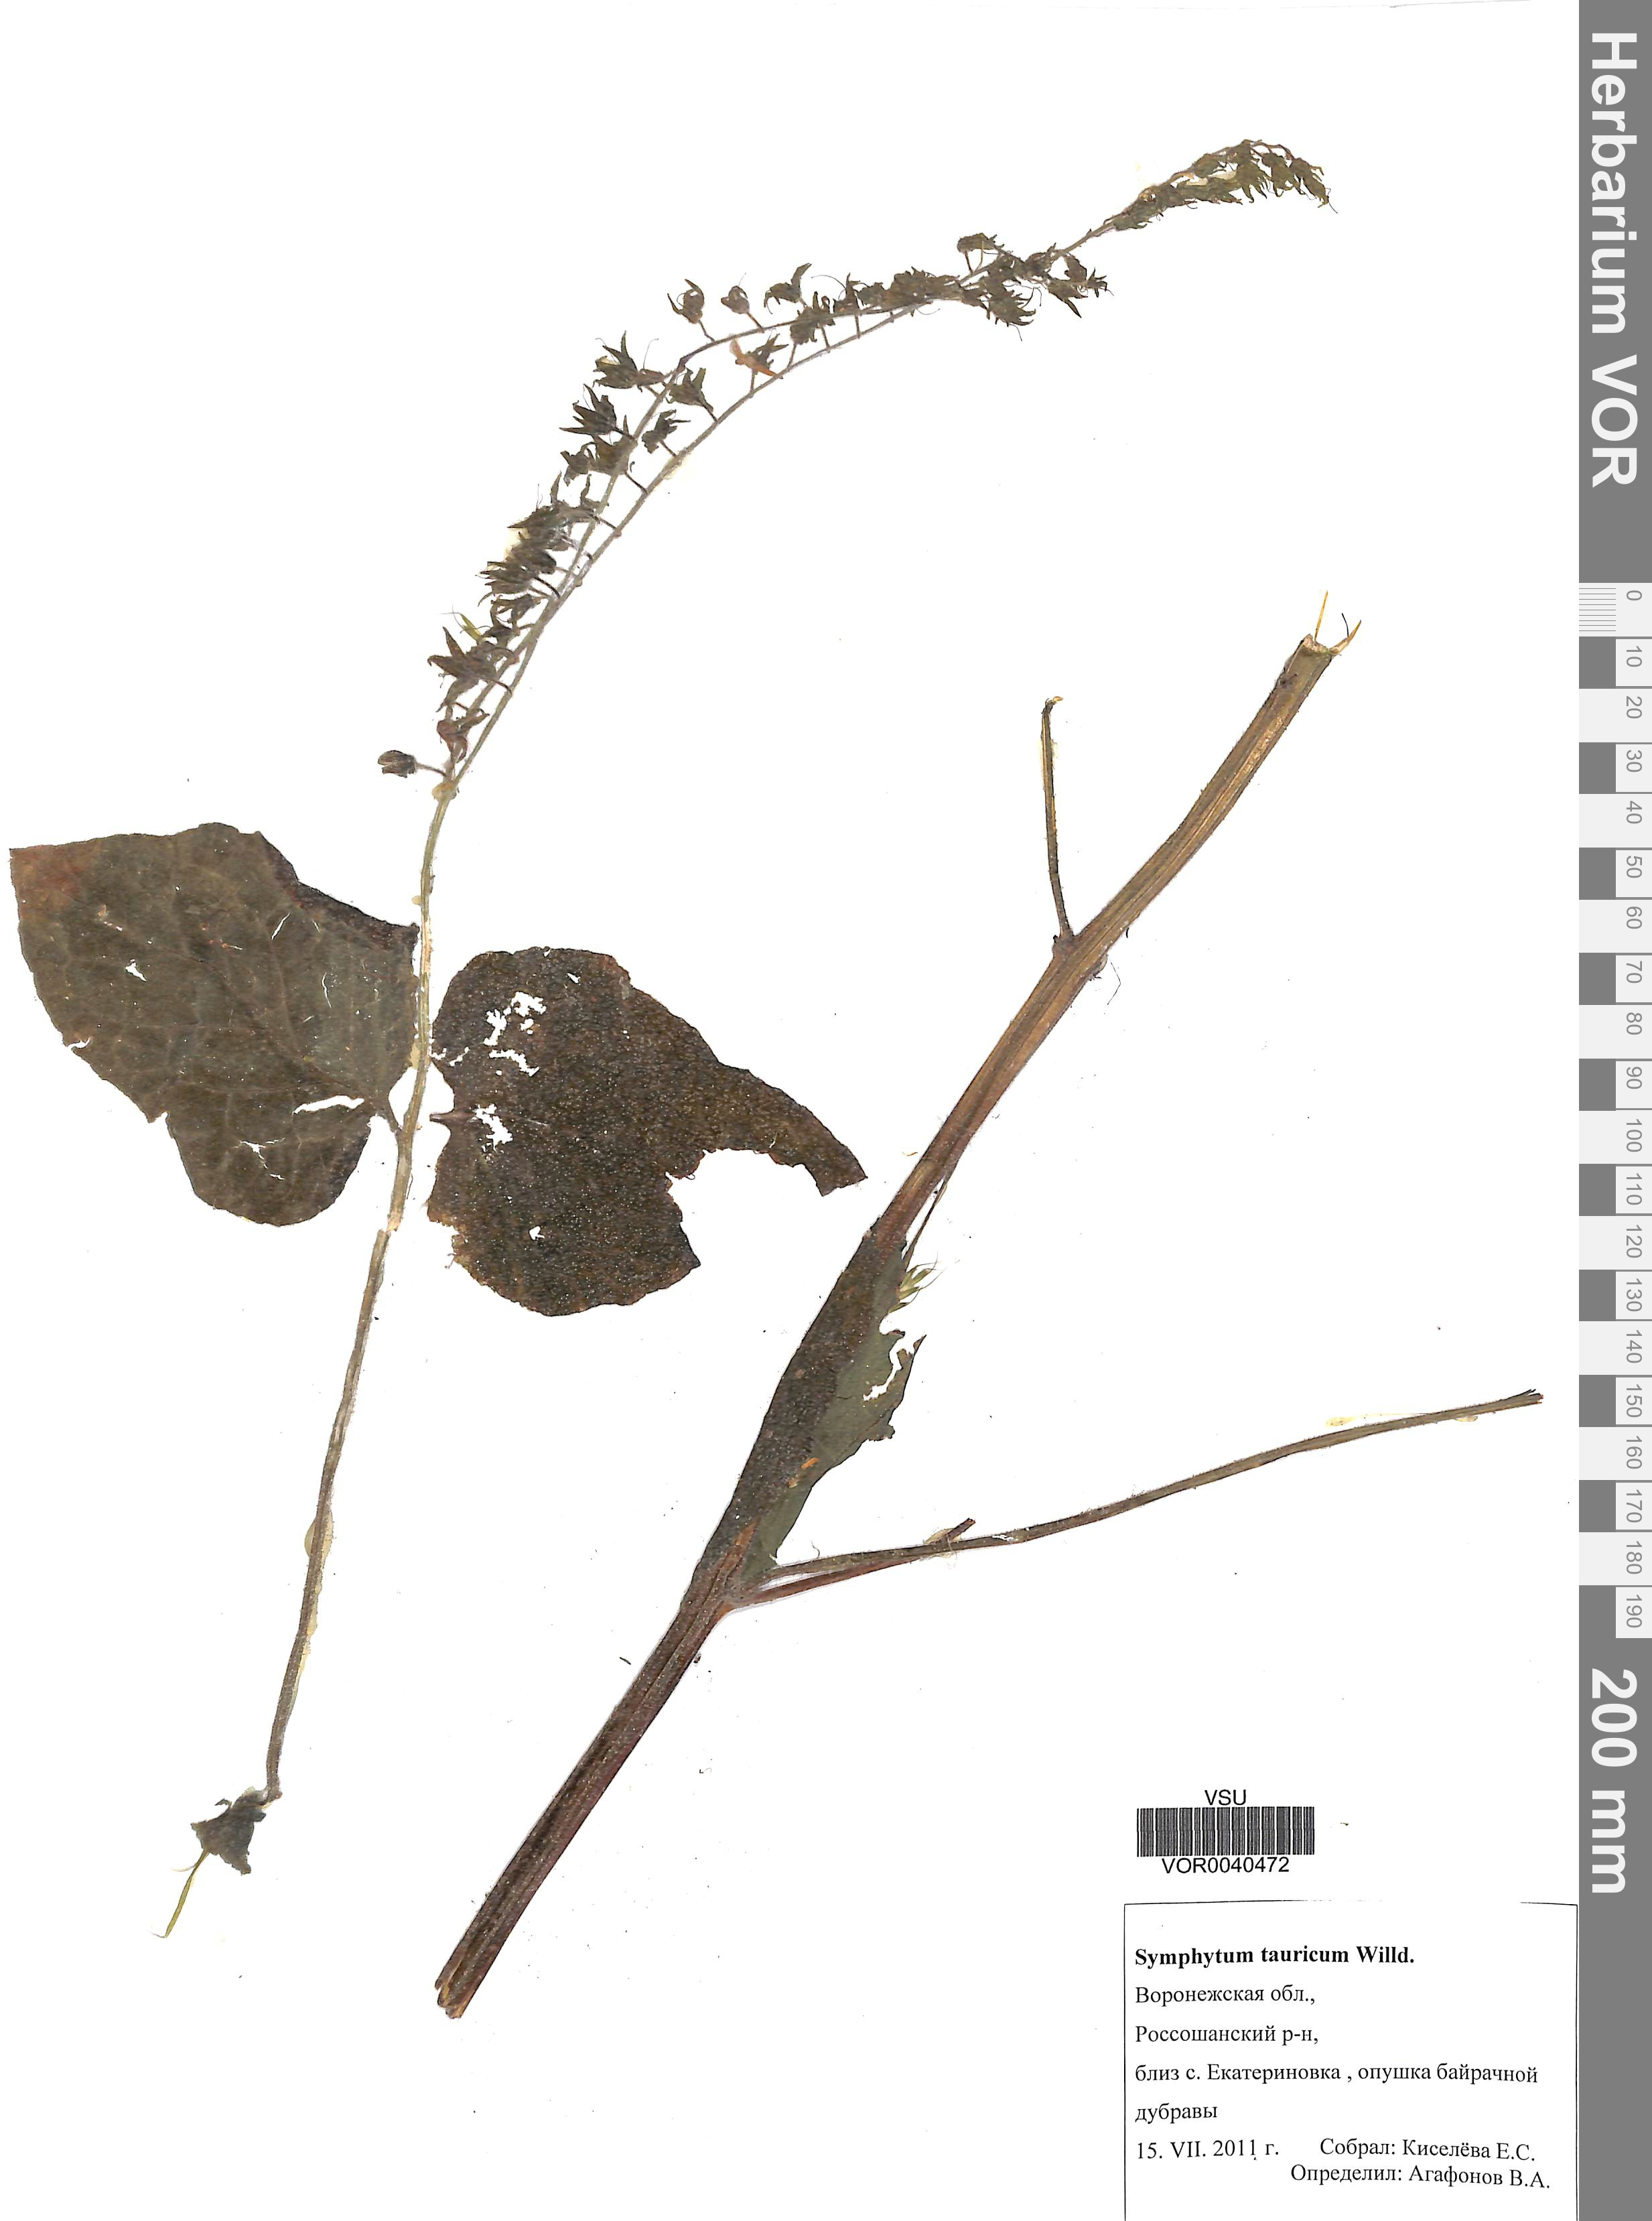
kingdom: Plantae
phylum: Tracheophyta
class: Magnoliopsida
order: Boraginales
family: Boraginaceae
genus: Symphytum
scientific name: Symphytum tauricum
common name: Crimean comfrey
